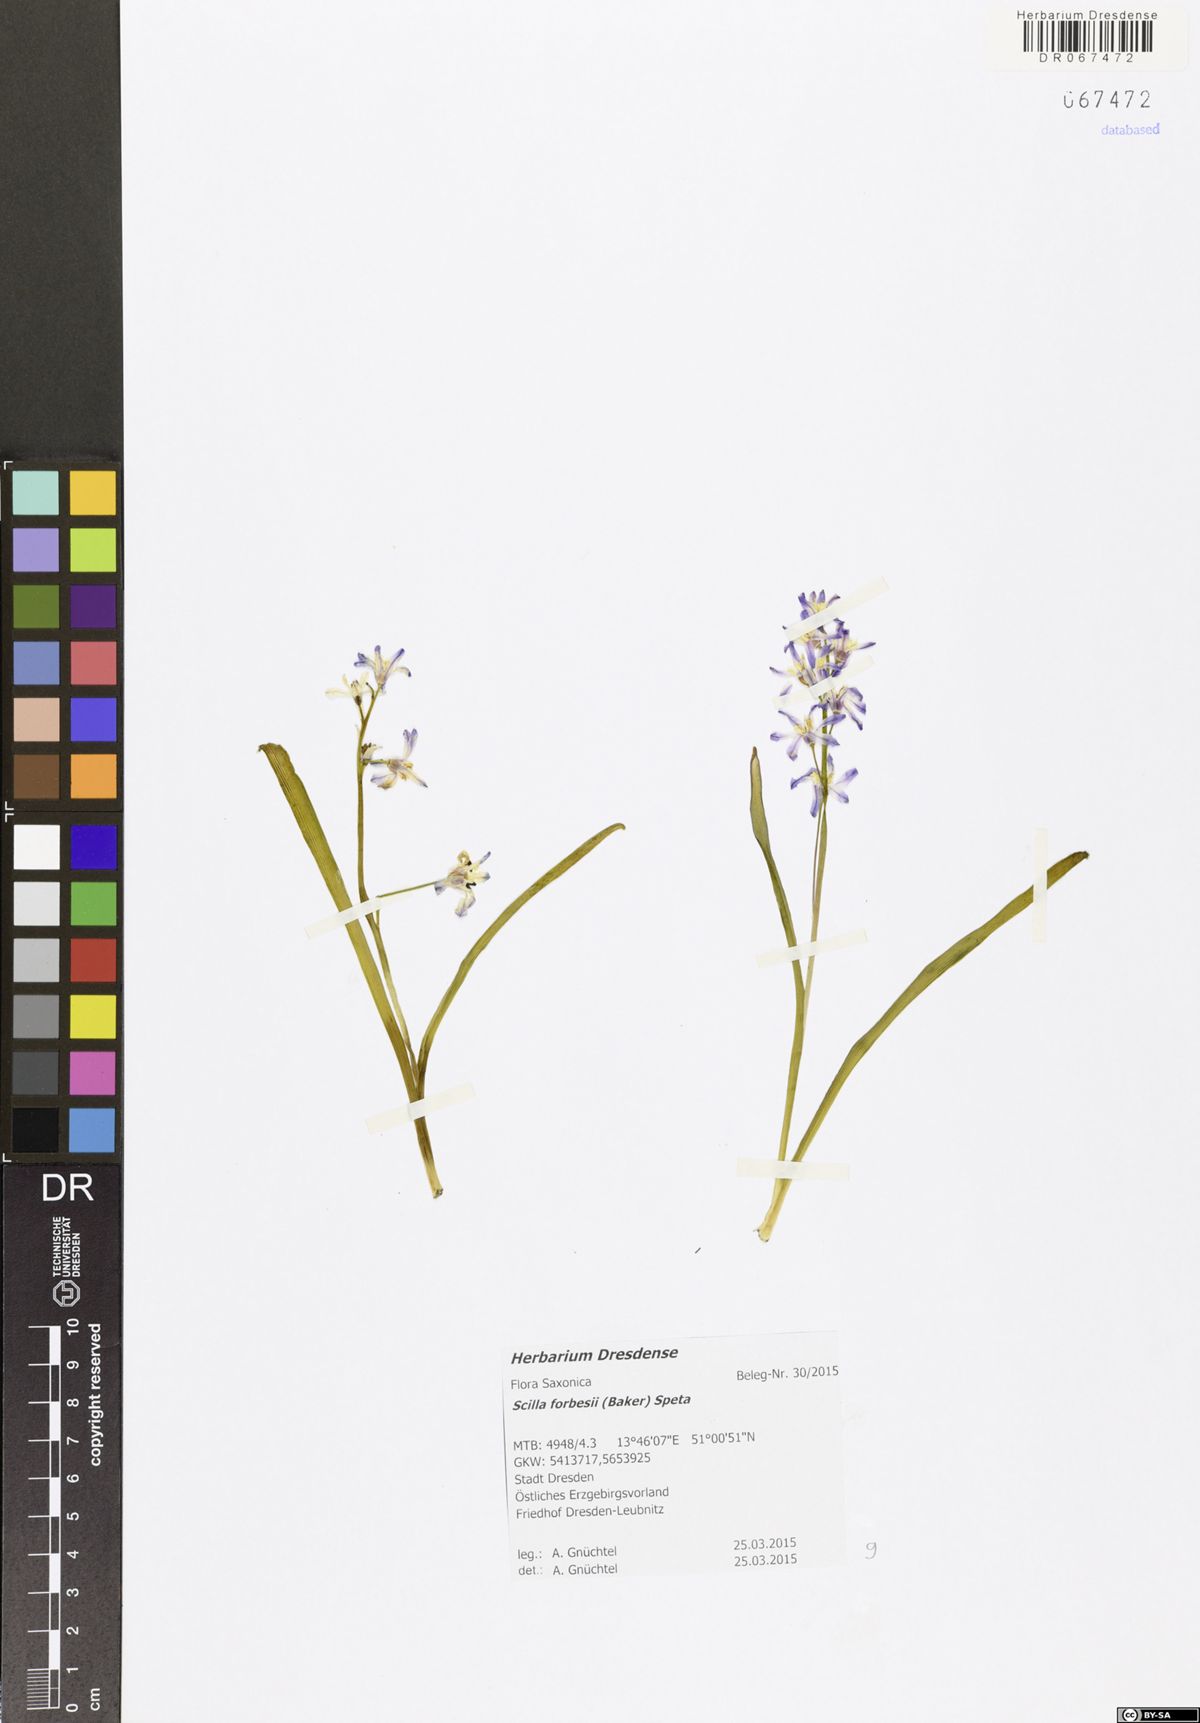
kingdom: Plantae
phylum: Tracheophyta
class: Liliopsida
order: Asparagales
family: Asparagaceae
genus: Scilla
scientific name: Scilla siberica
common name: Siberian squill
